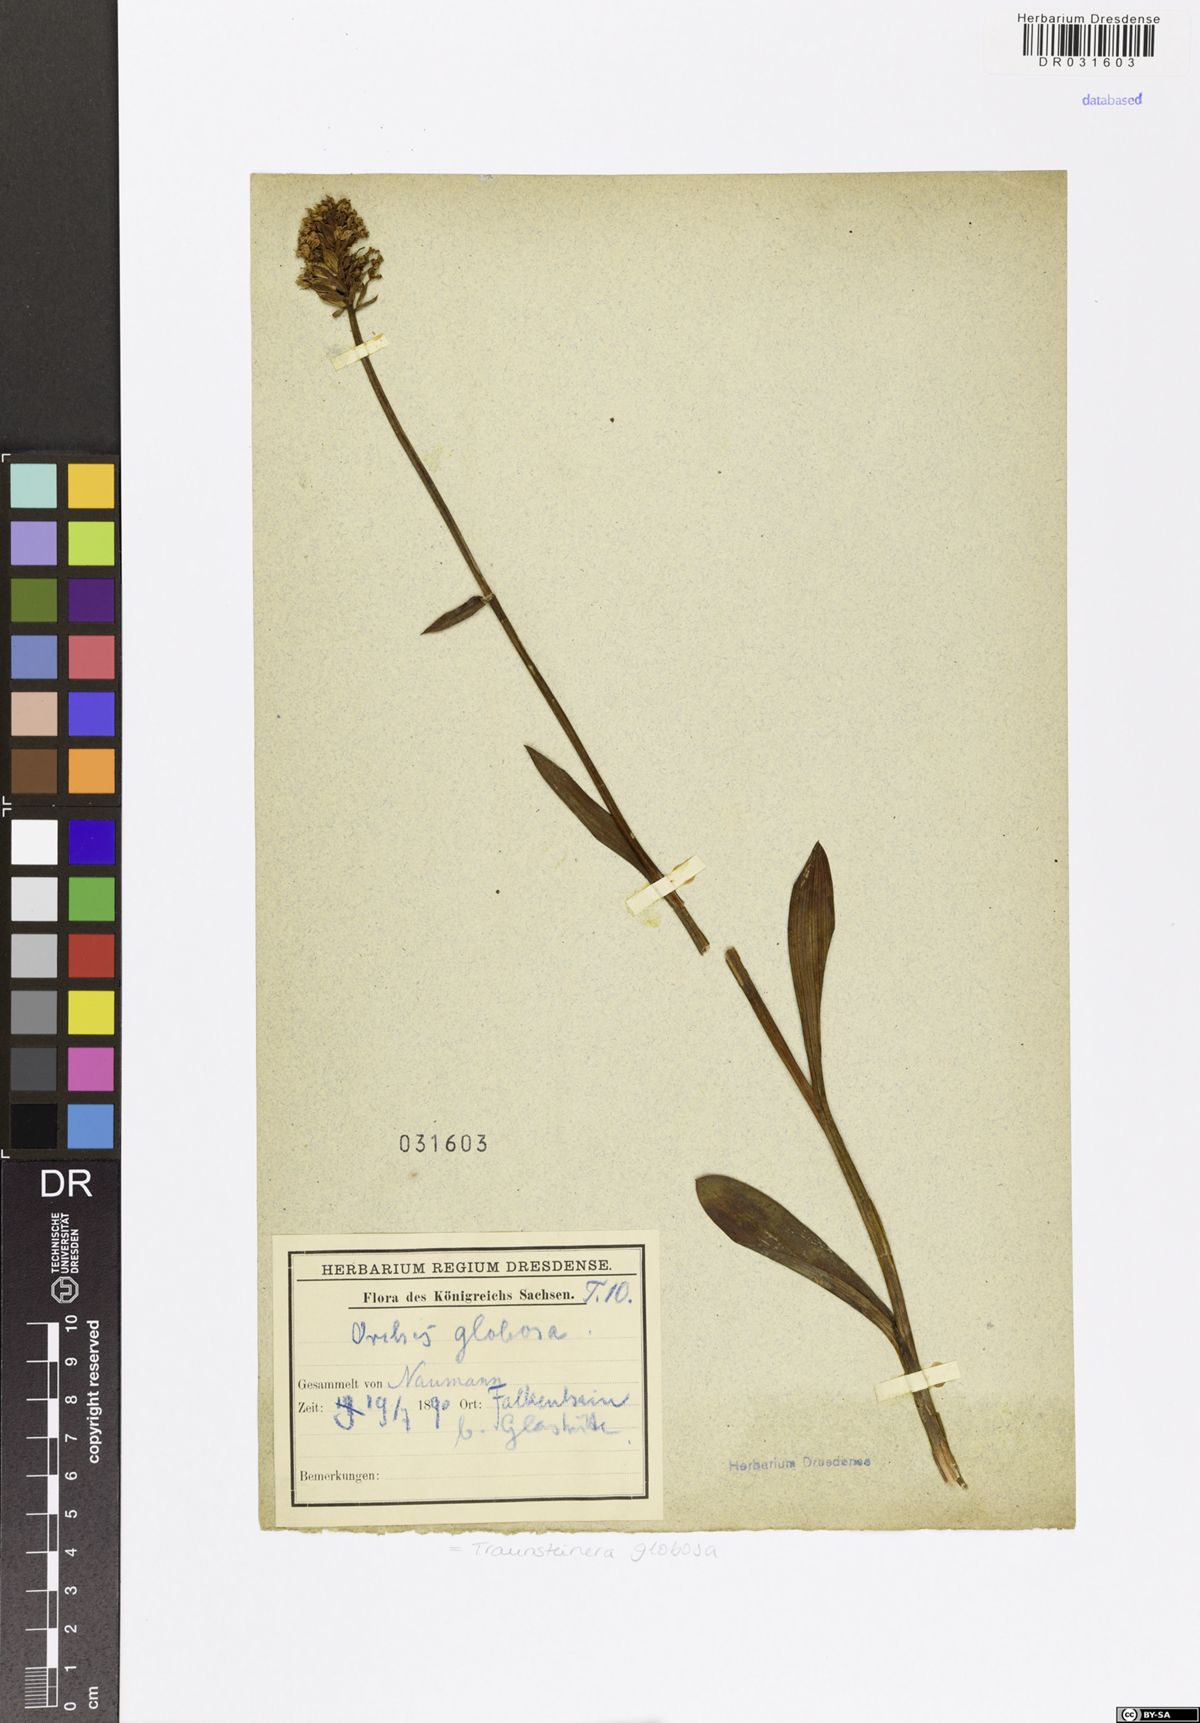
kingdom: Plantae
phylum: Tracheophyta
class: Liliopsida
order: Asparagales
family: Orchidaceae
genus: Traunsteinera
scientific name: Traunsteinera globosa
